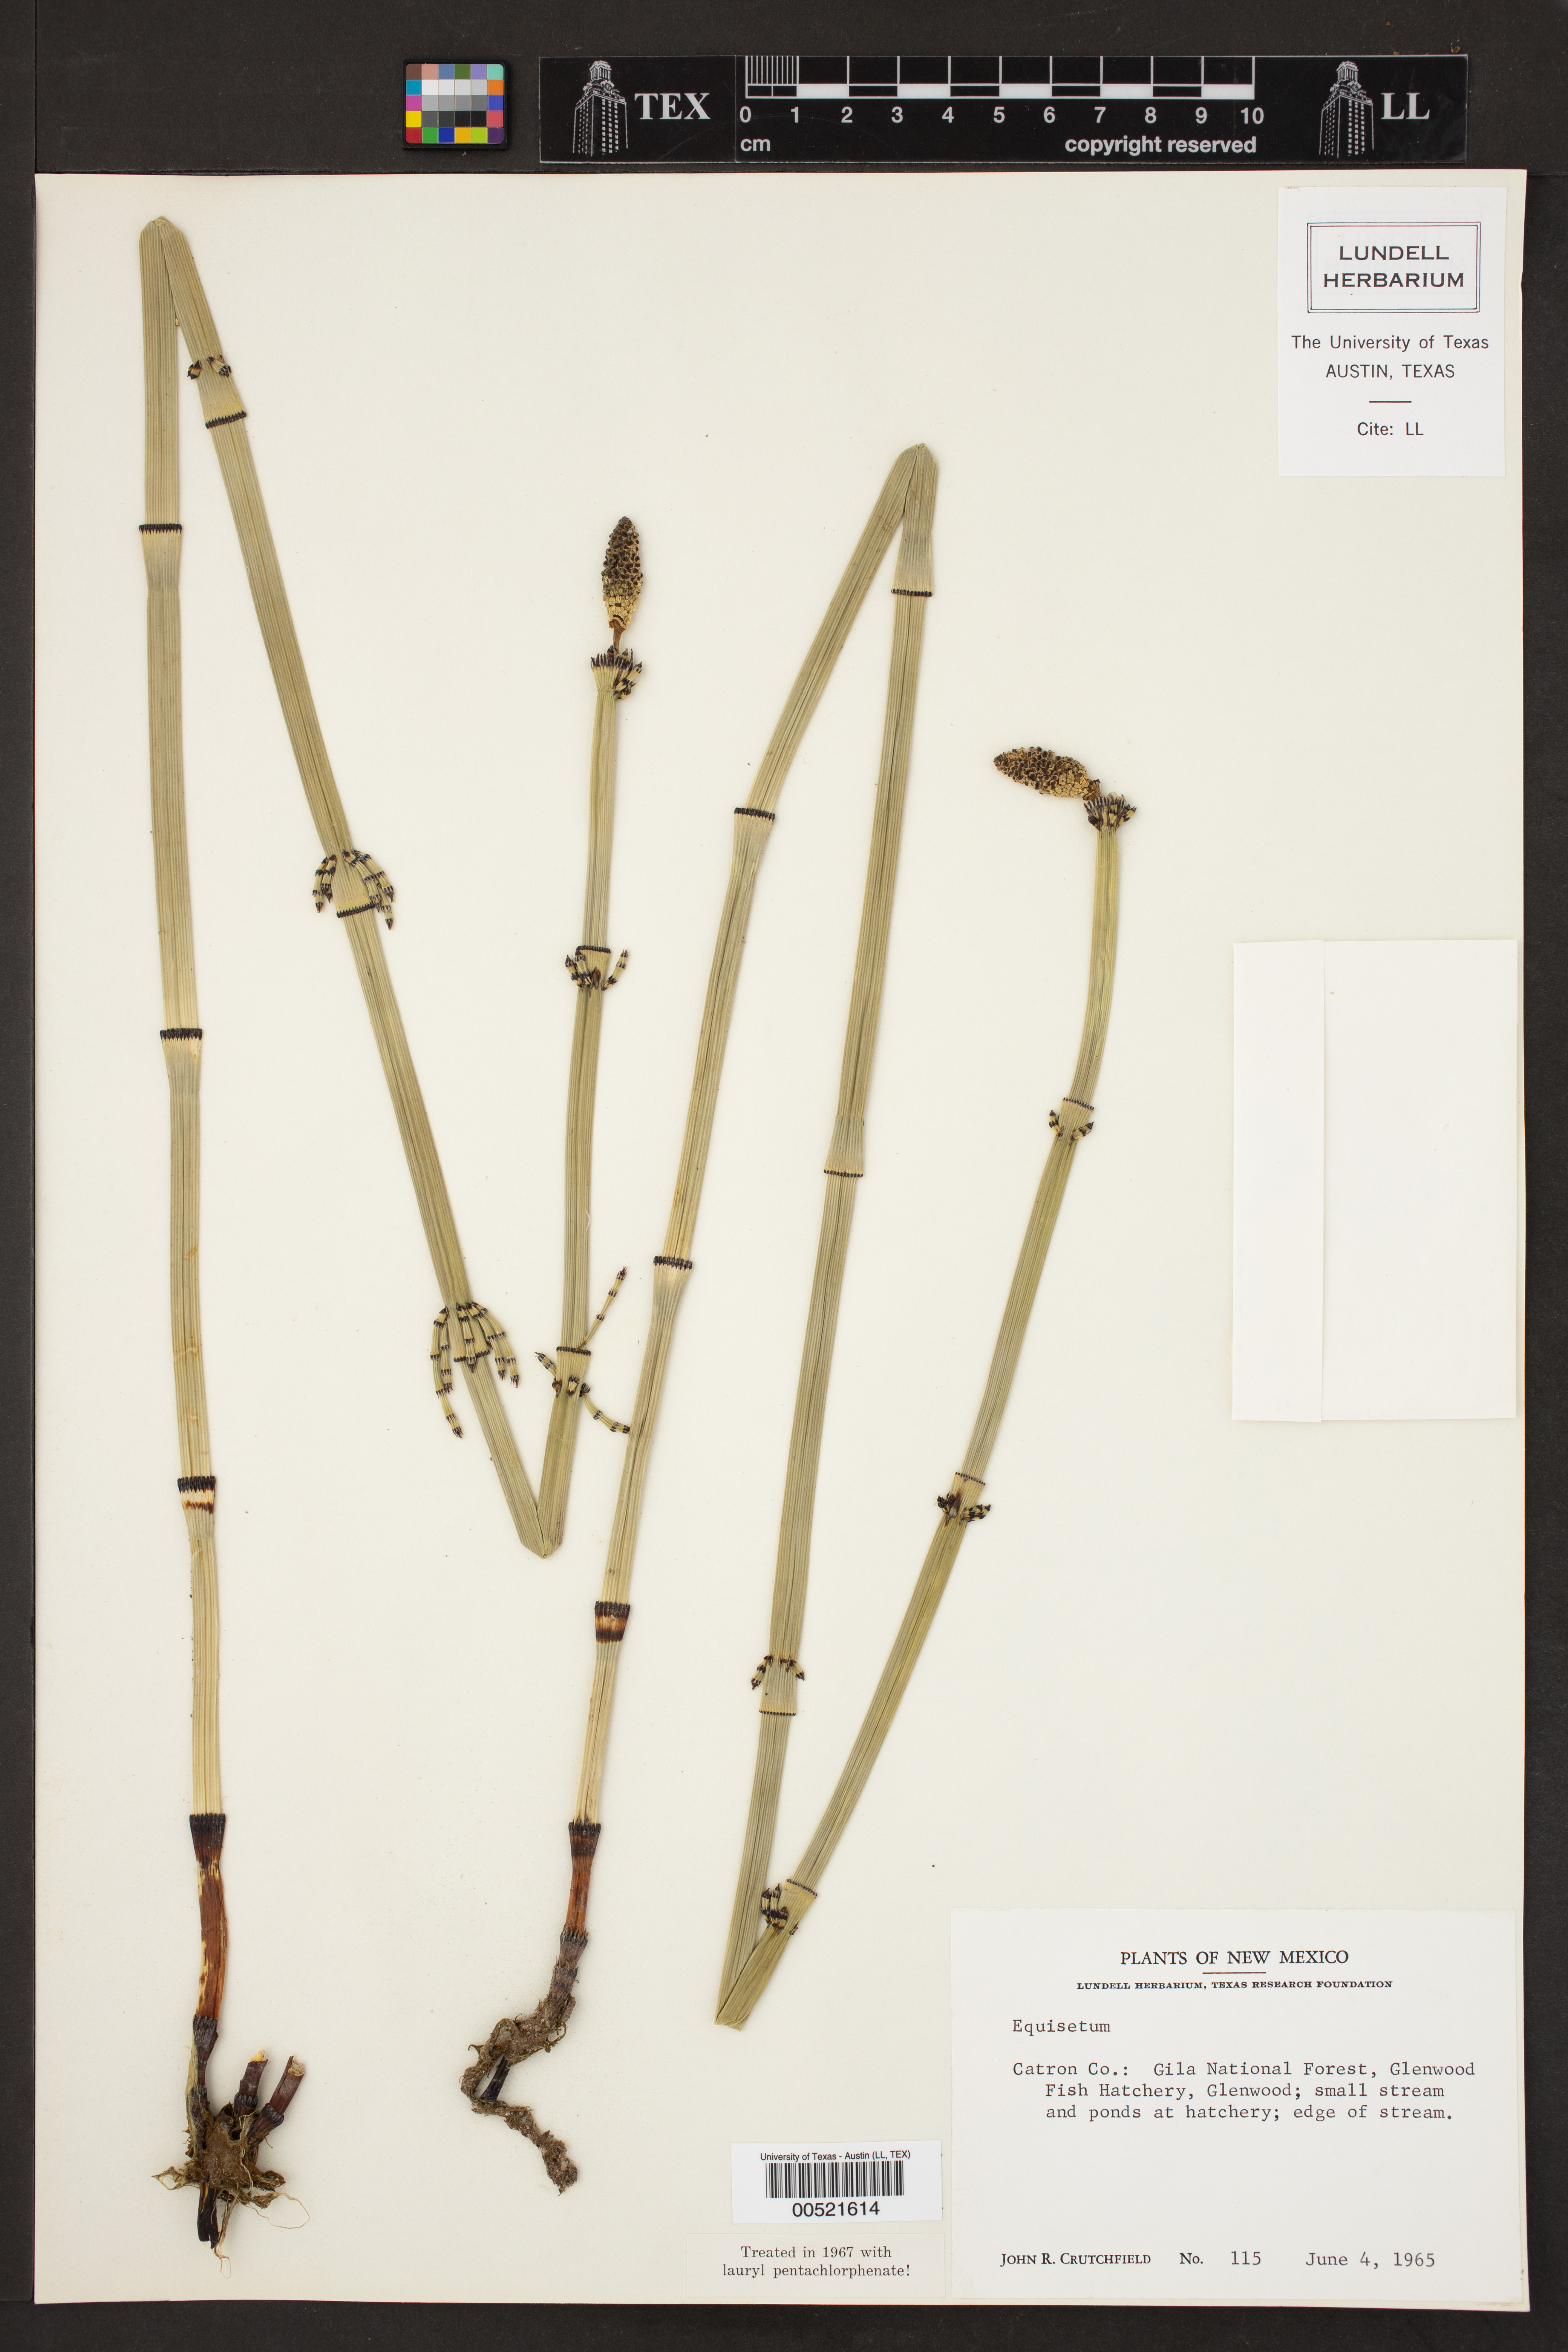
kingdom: Plantae
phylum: Tracheophyta
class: Polypodiopsida
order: Equisetales
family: Equisetaceae
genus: Equisetum
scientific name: Equisetum
